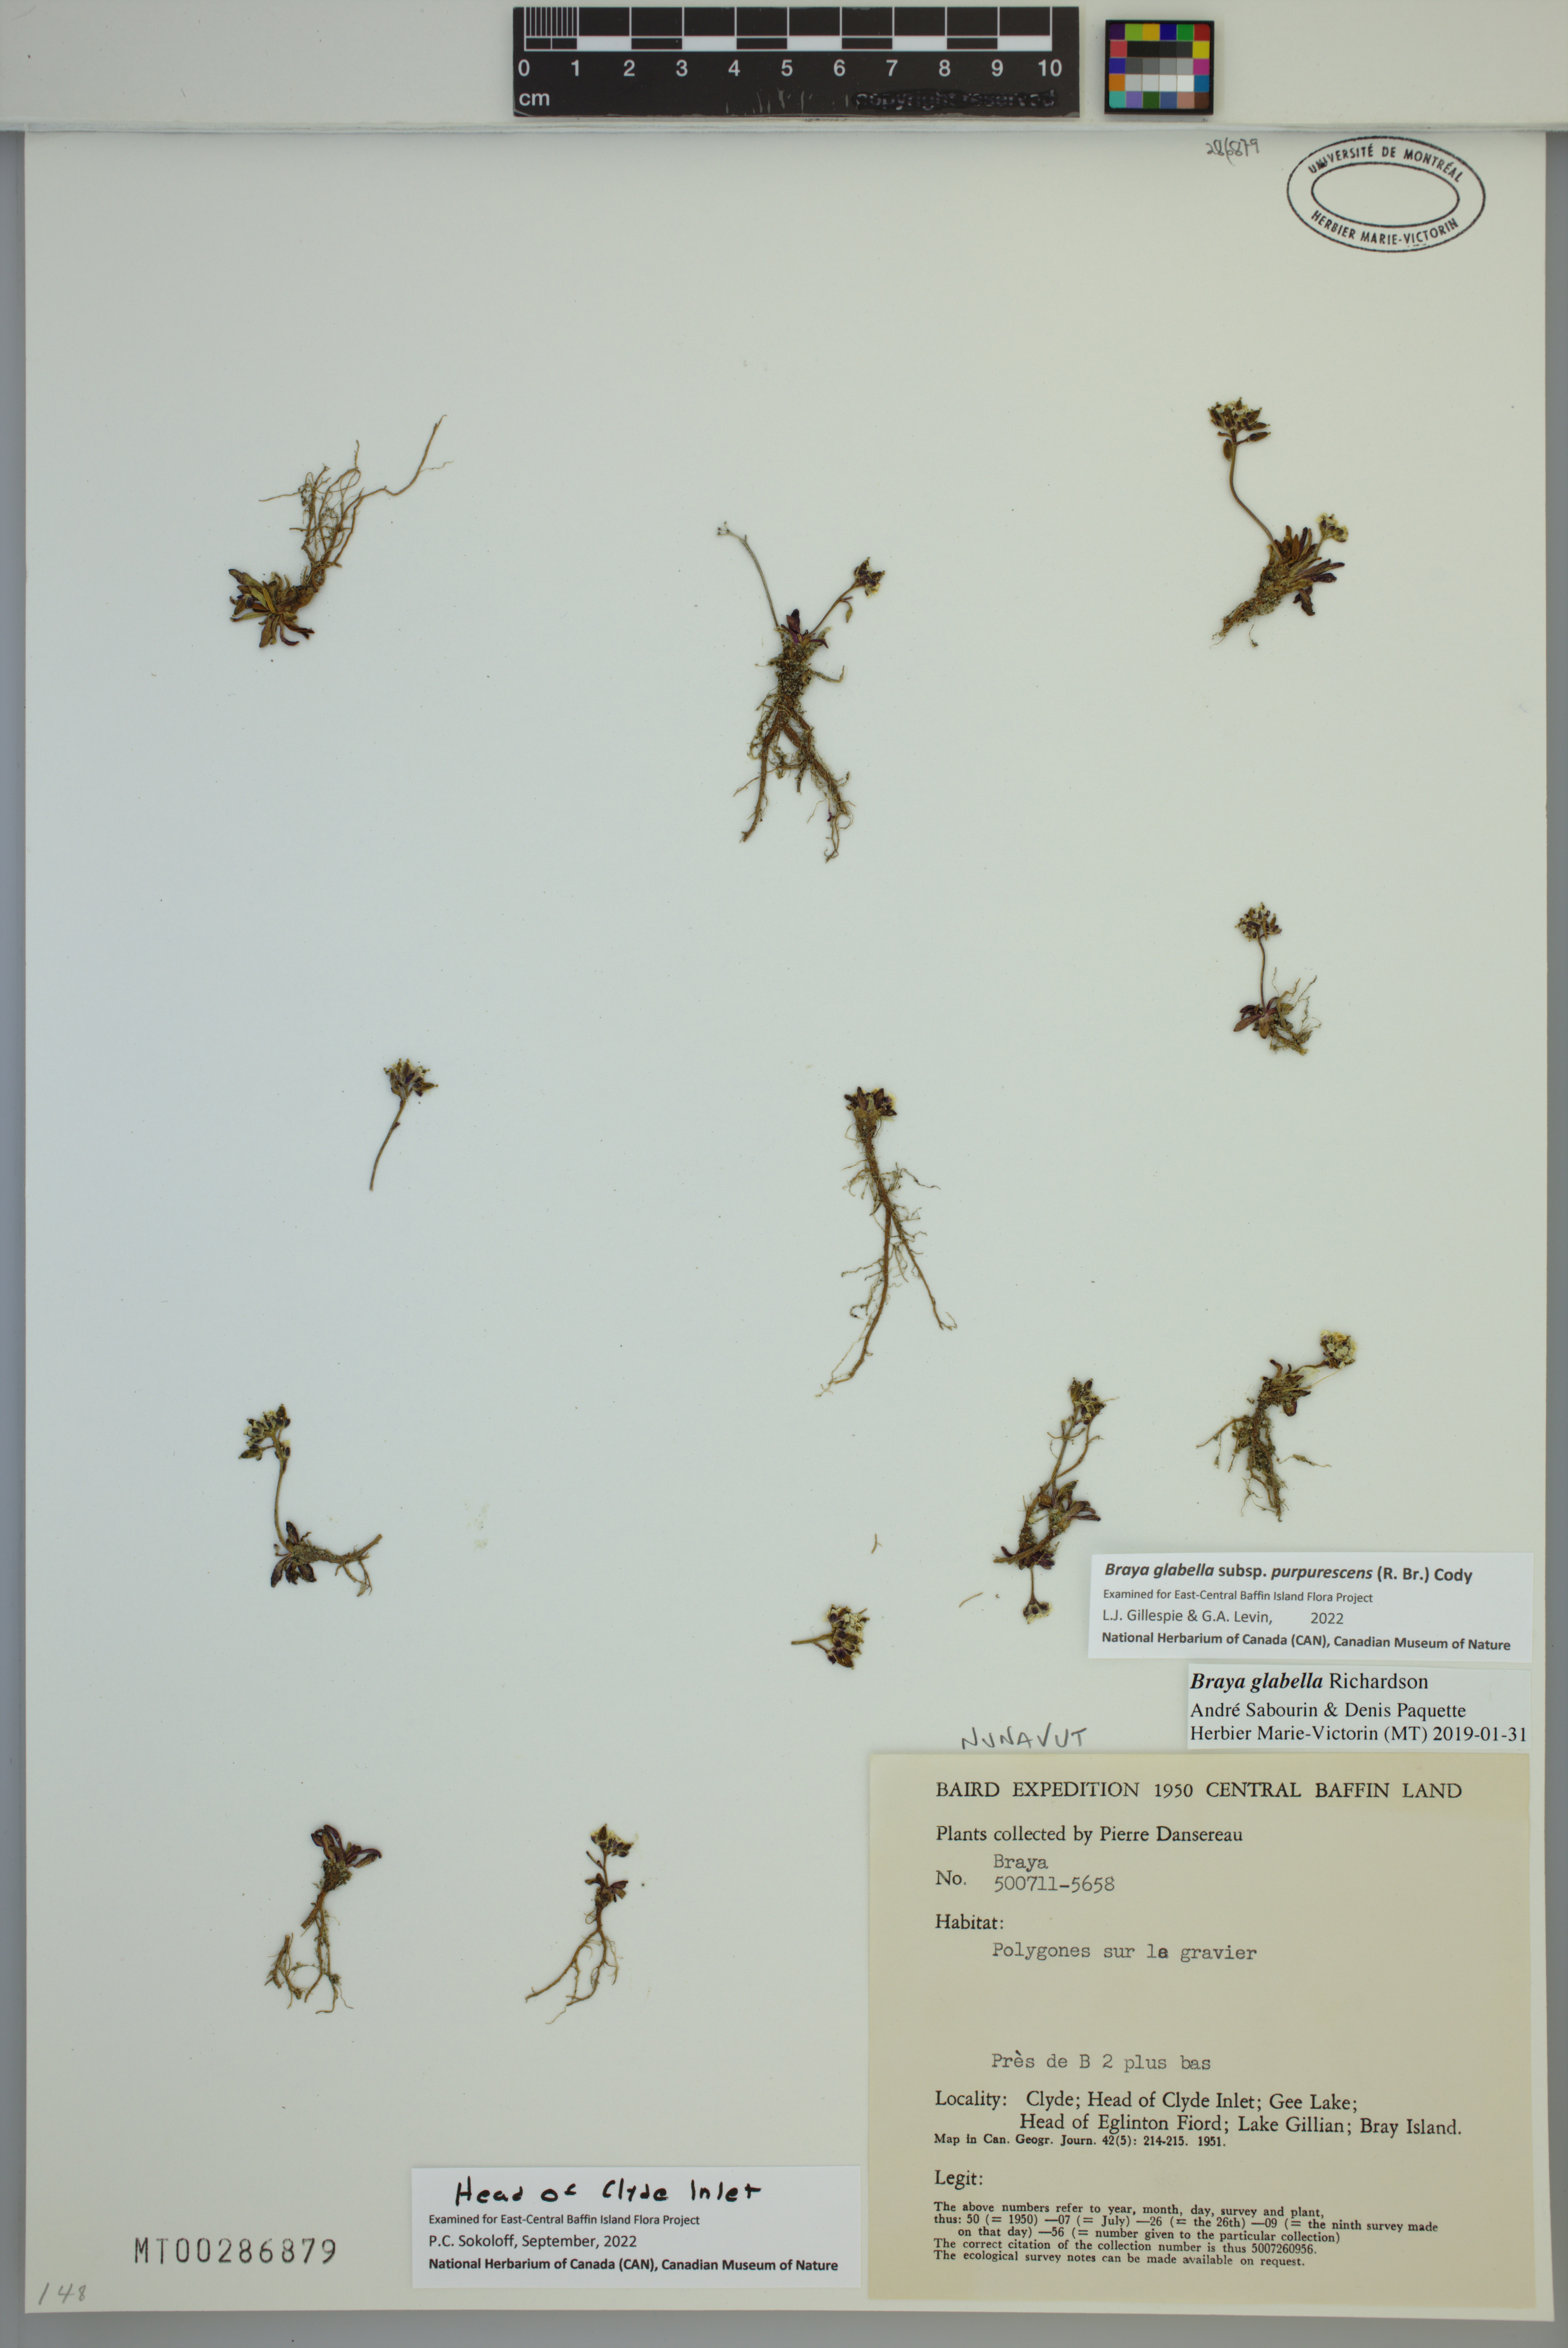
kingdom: Plantae
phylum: Tracheophyta
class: Magnoliopsida
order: Brassicales
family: Brassicaceae
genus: Braya
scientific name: Braya purpurascens
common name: Alpine braya
